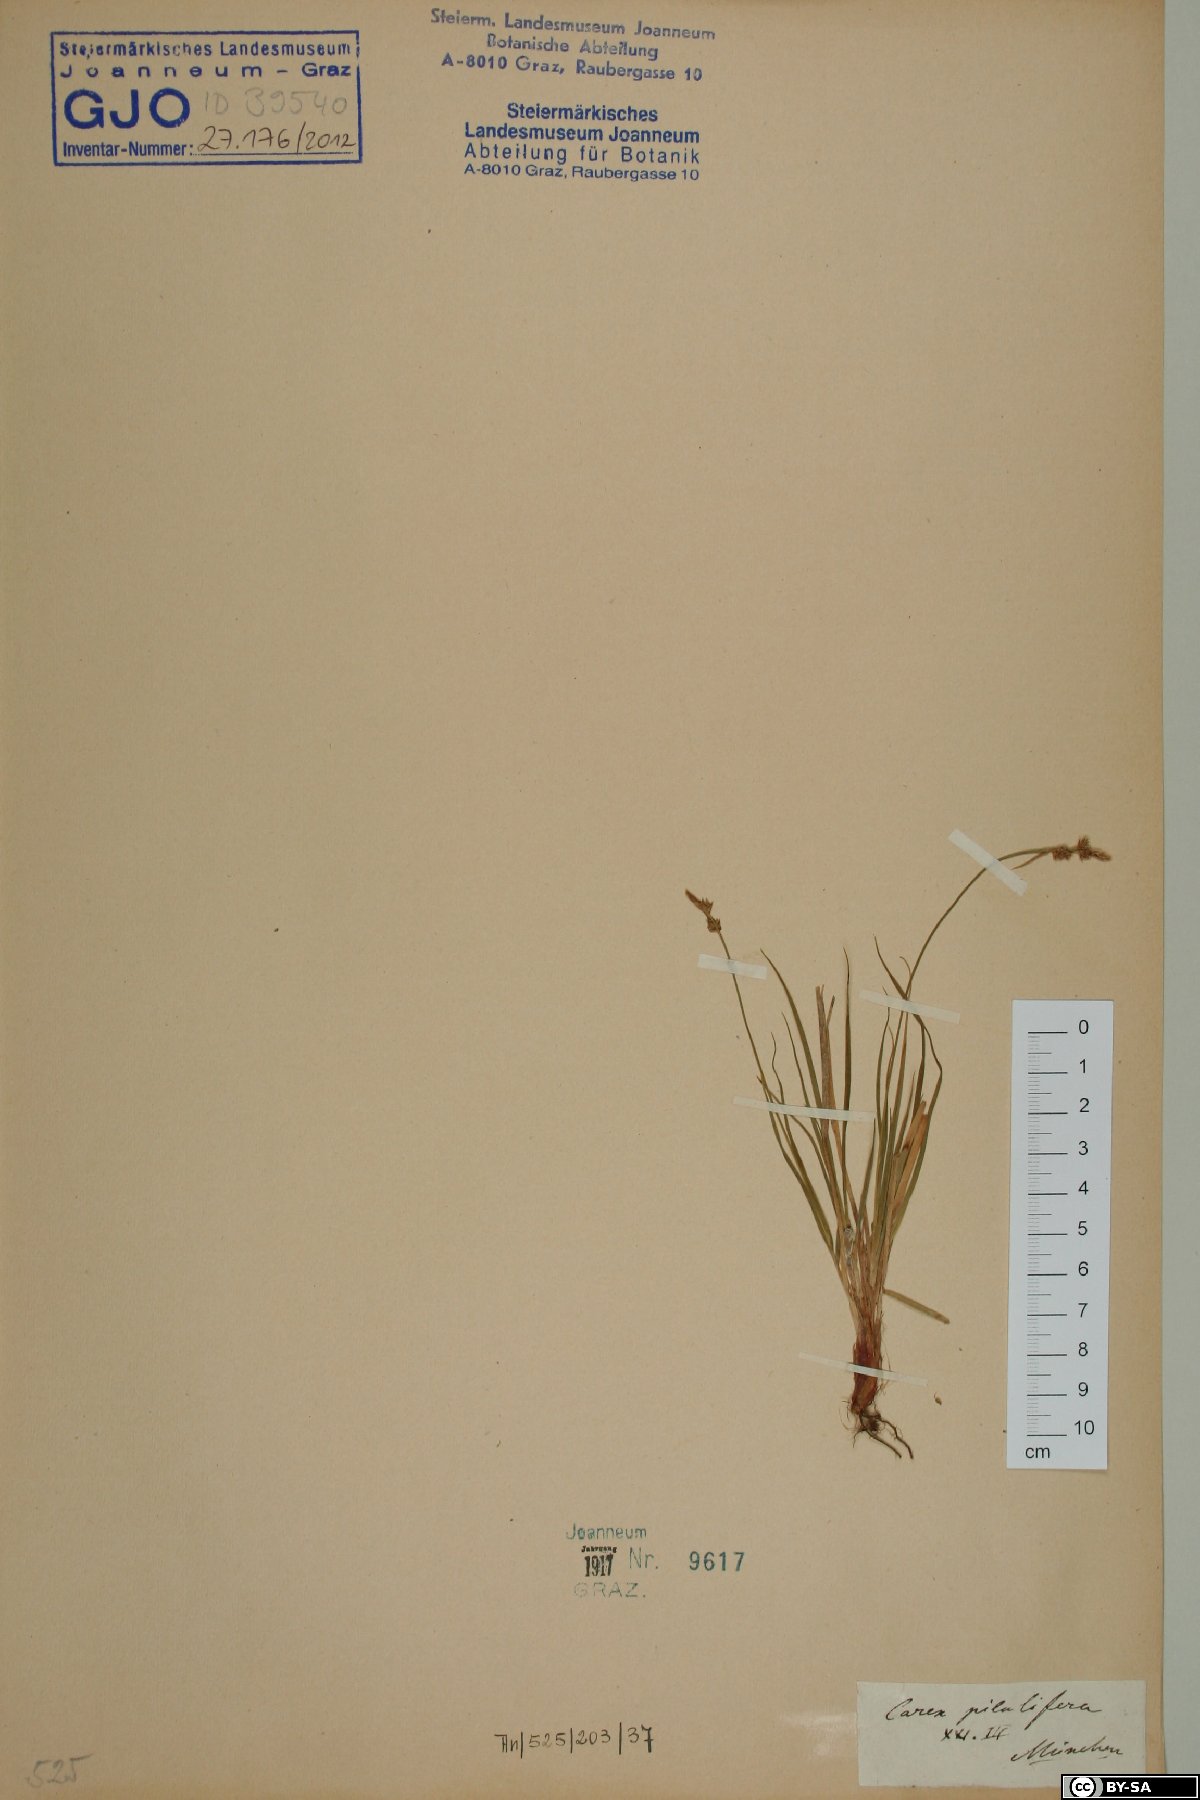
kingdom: Plantae
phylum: Tracheophyta
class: Liliopsida
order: Poales
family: Cyperaceae
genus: Carex
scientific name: Carex pilulifera
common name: Pill sedge
